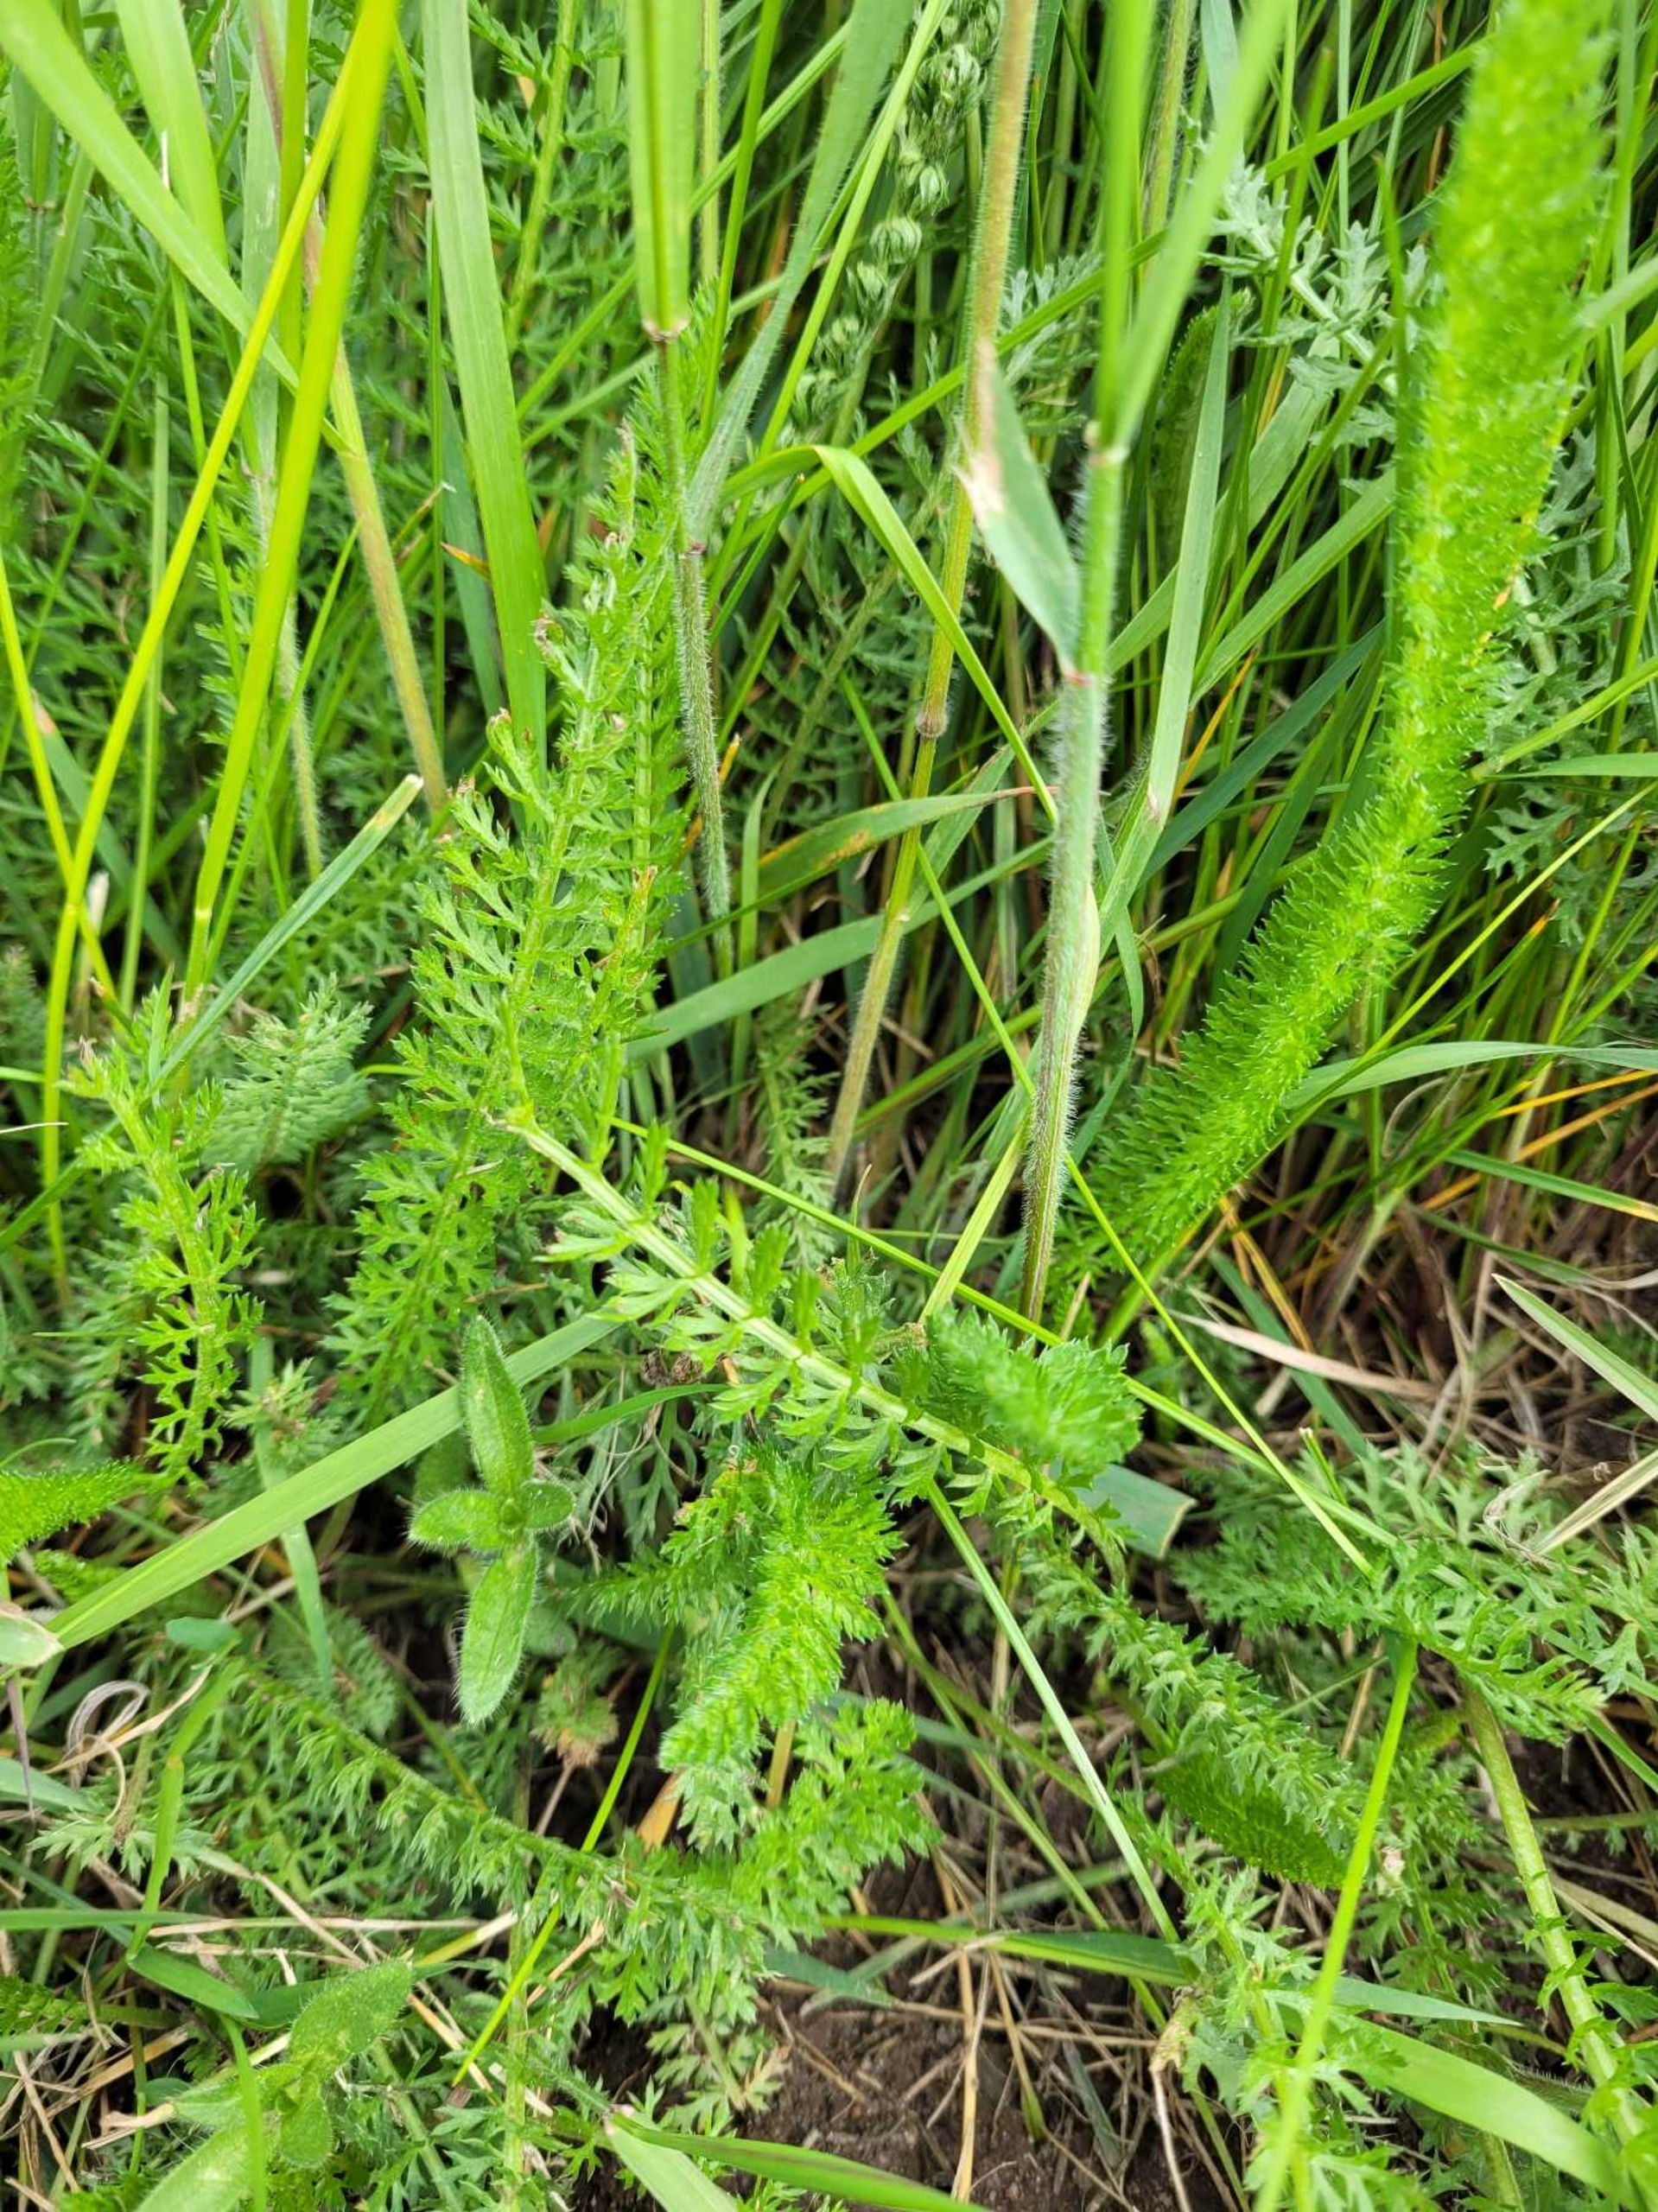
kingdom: Plantae
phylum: Tracheophyta
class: Magnoliopsida
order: Asterales
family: Asteraceae
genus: Achillea
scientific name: Achillea millefolium
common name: Almindelig røllike
